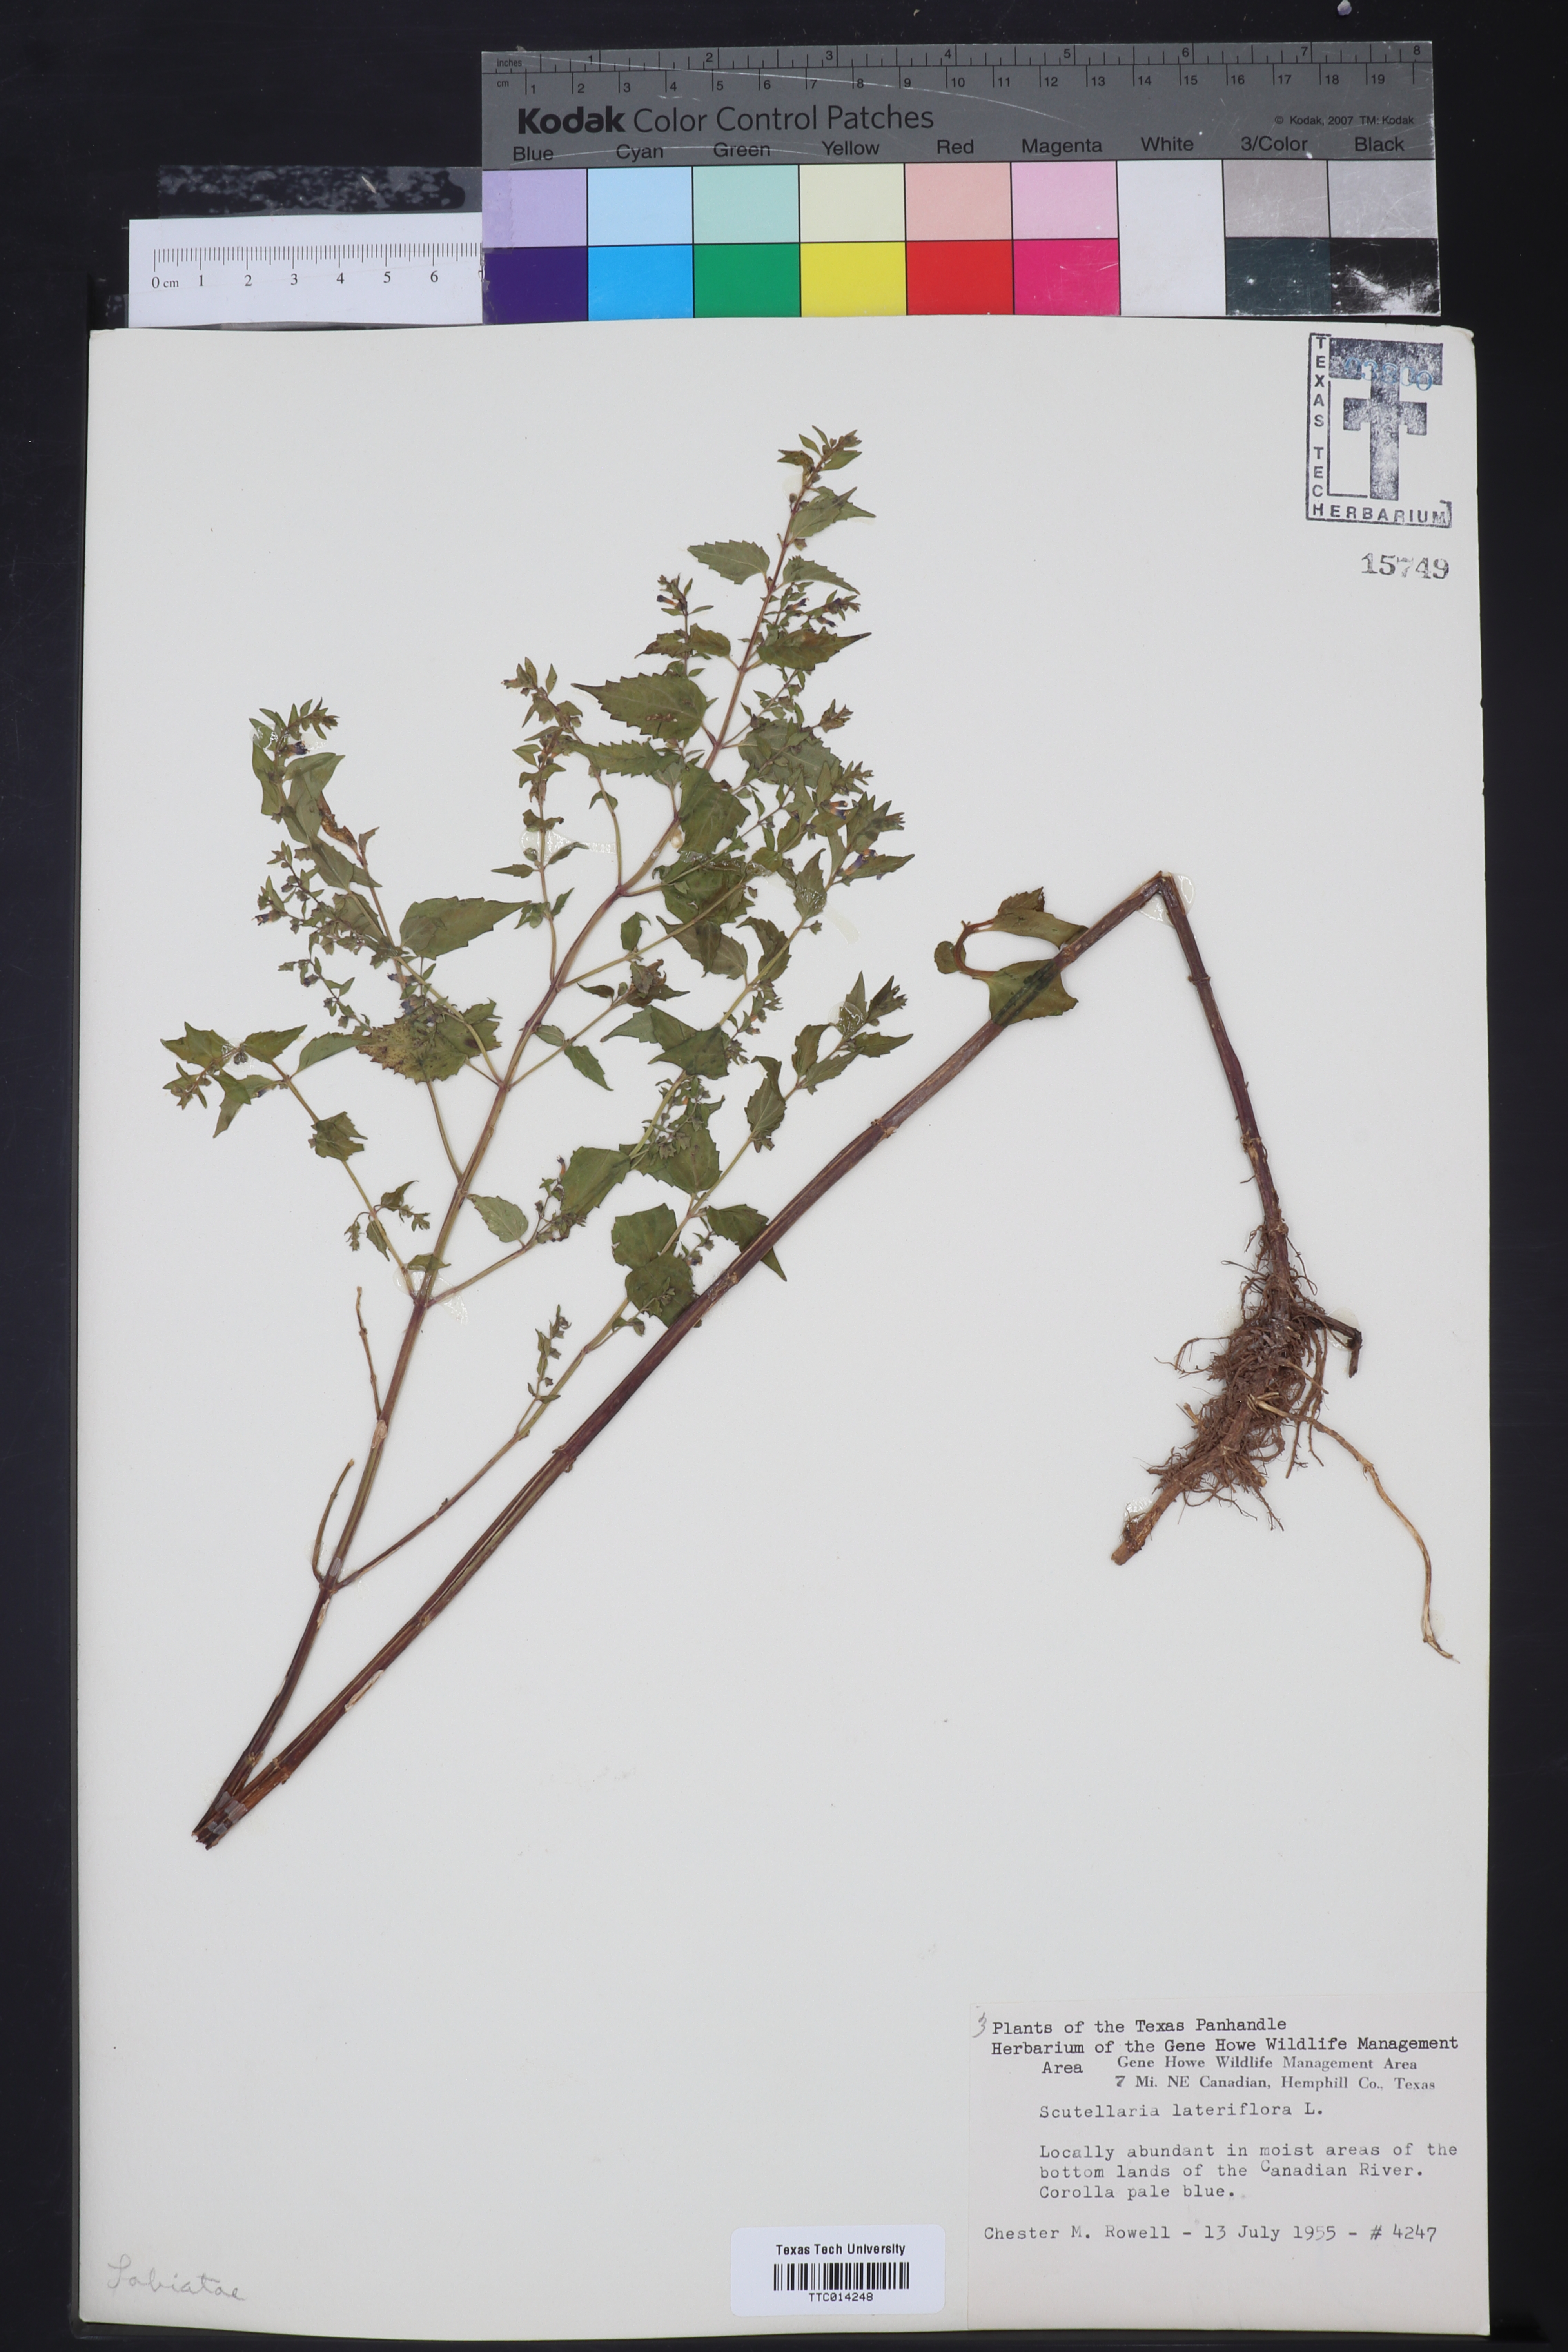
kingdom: Plantae
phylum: Tracheophyta
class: Magnoliopsida
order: Lamiales
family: Lamiaceae
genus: Scutellaria
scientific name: Scutellaria lateriflora
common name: Blue skullcap
